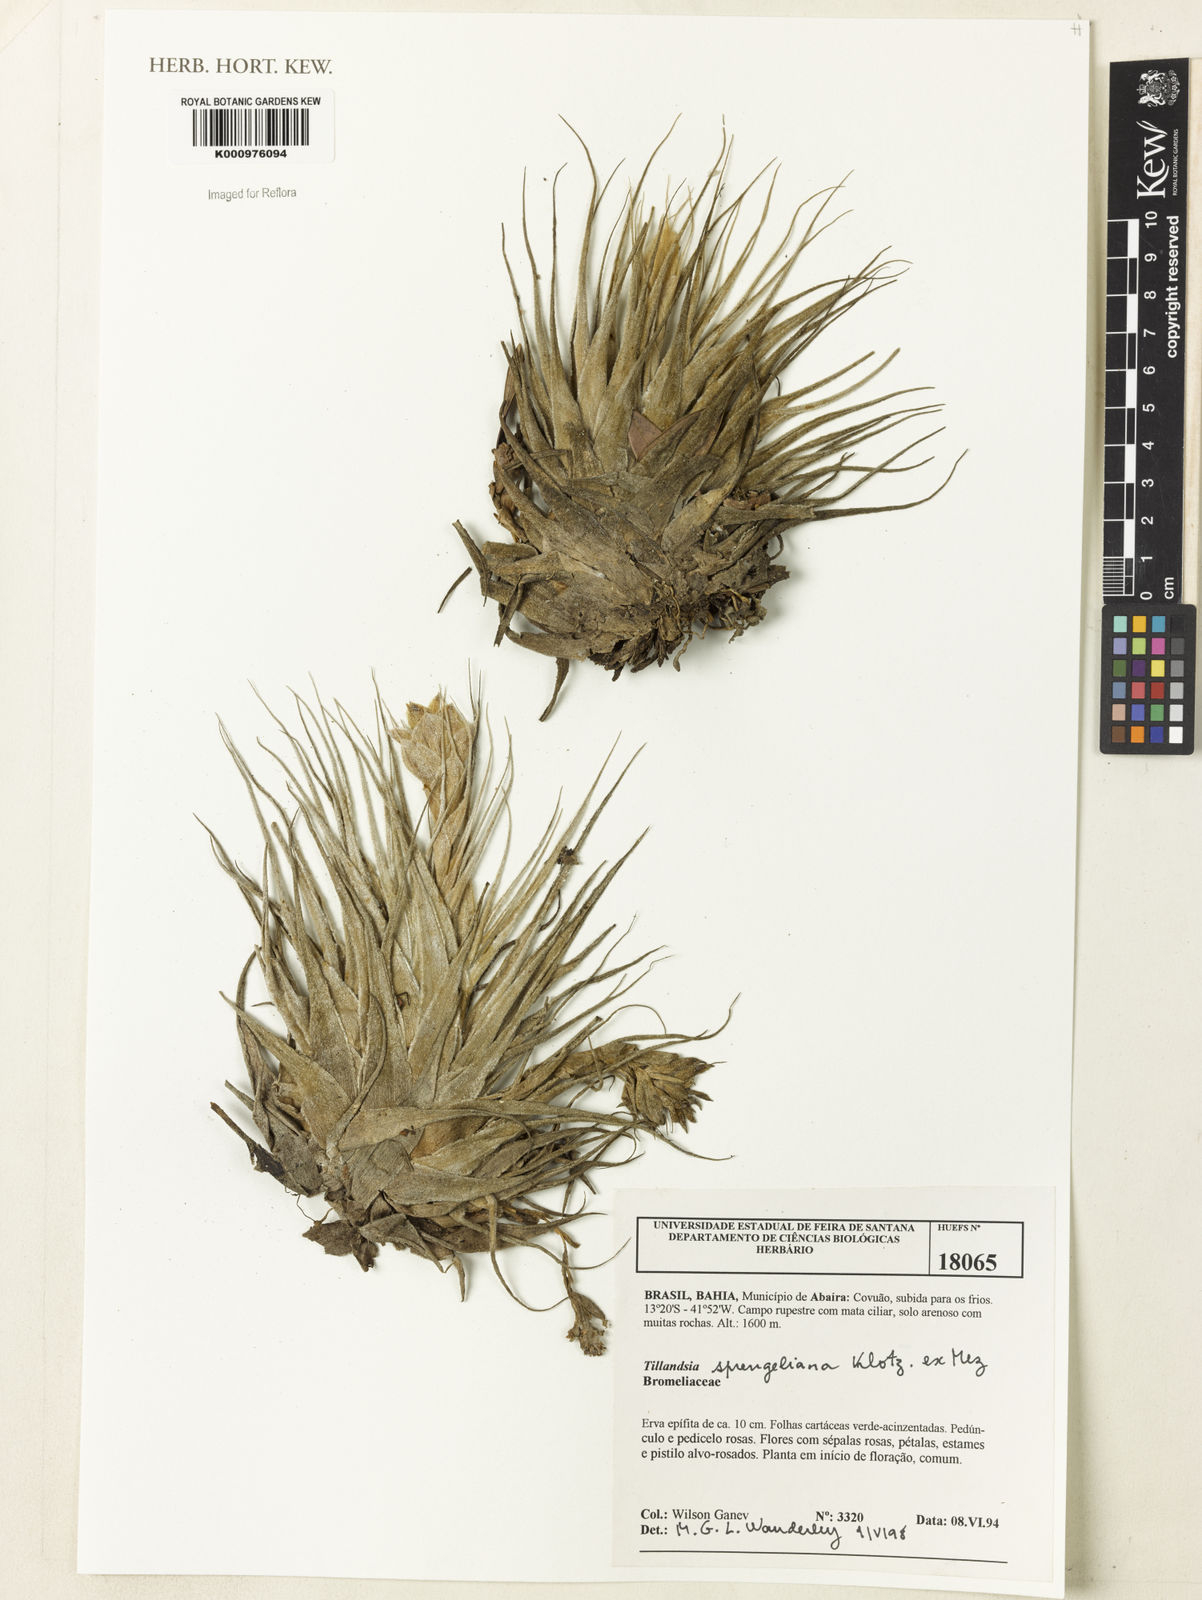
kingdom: Plantae
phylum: Tracheophyta
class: Liliopsida
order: Poales
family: Bromeliaceae
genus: Tillandsia
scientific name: Tillandsia sprengeliana
